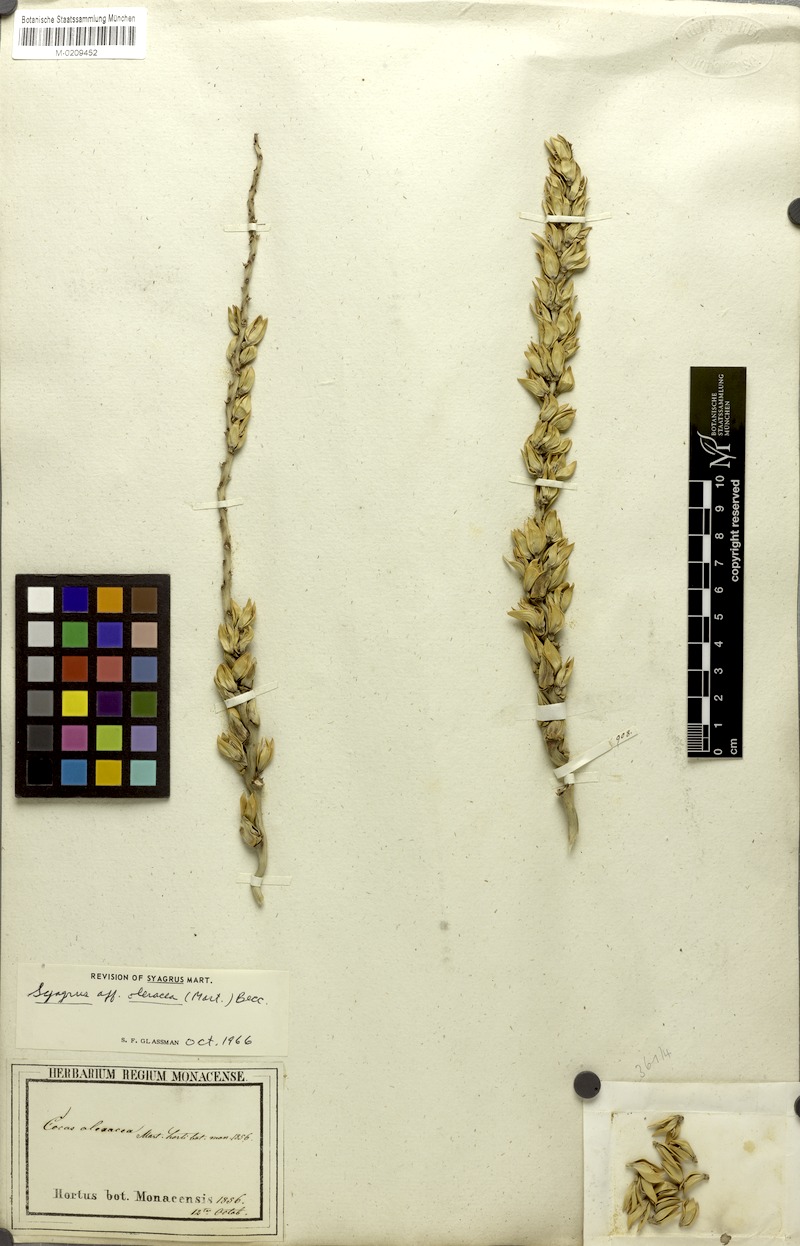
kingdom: Plantae
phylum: Tracheophyta
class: Liliopsida
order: Arecales
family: Arecaceae
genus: Syagrus
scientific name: Syagrus oleracea
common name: Catole palm
